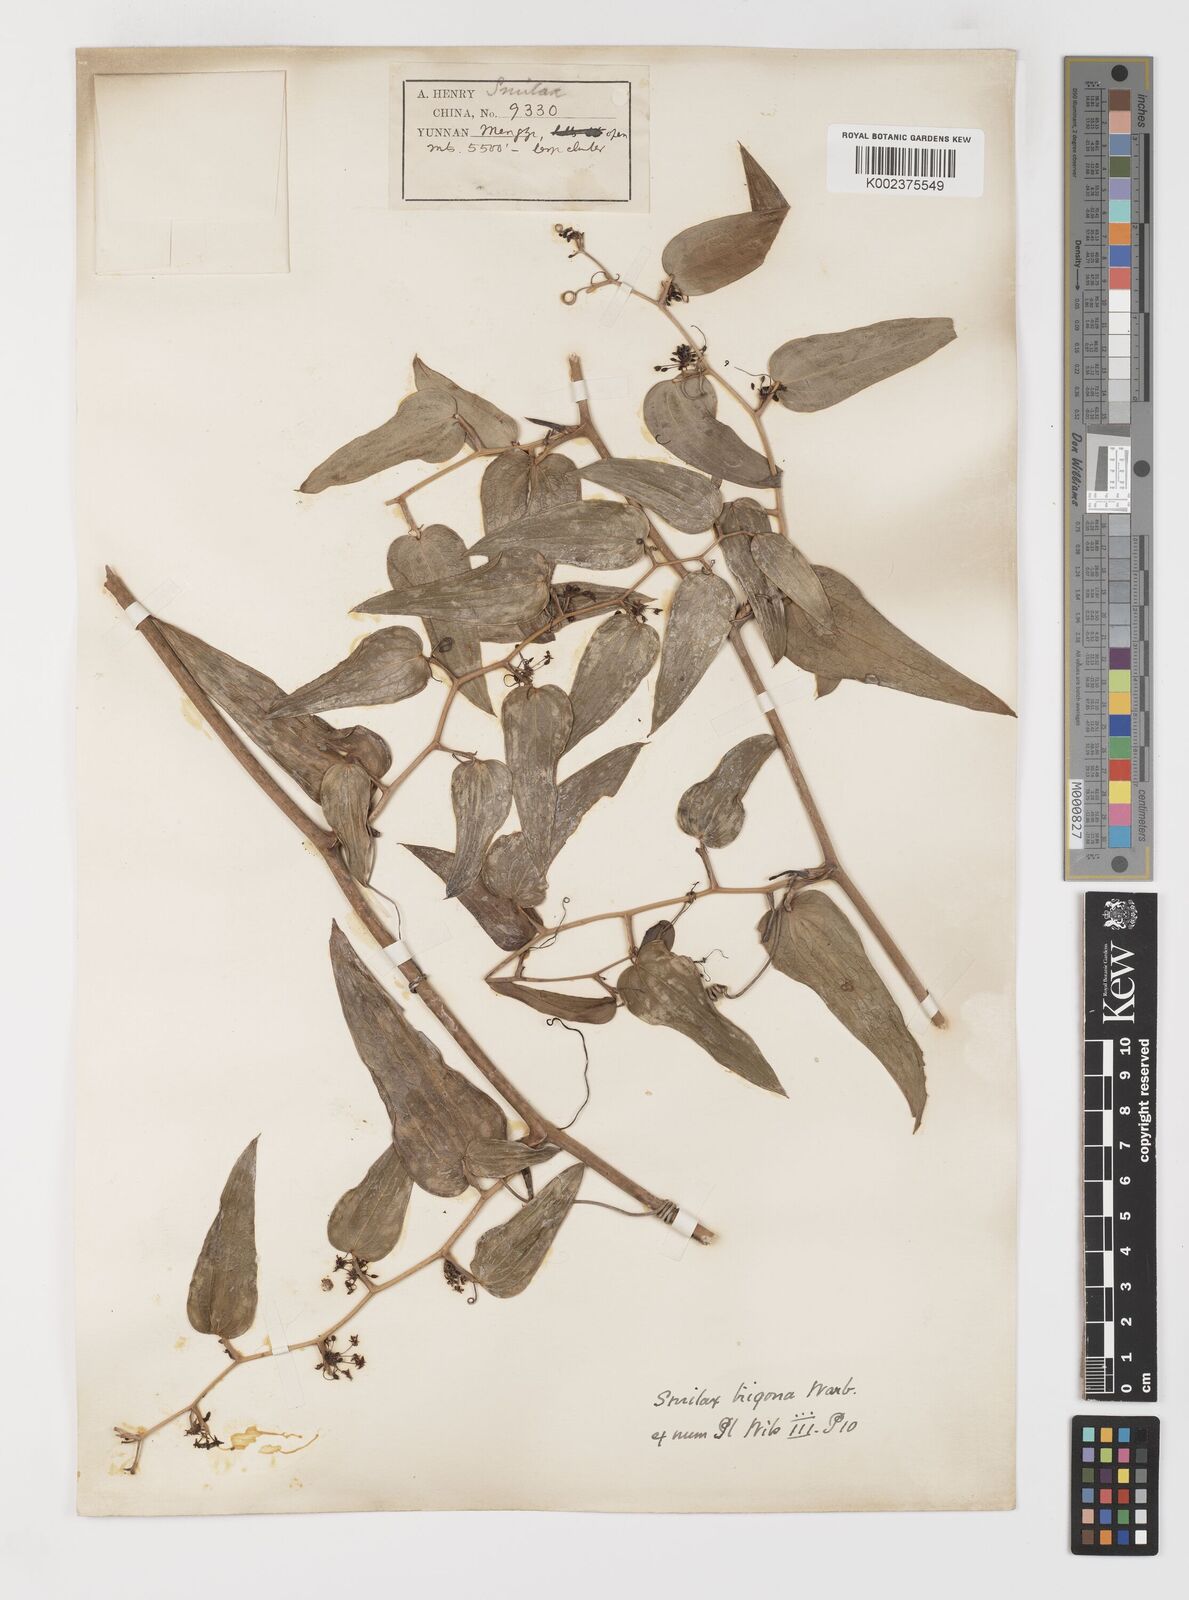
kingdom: Plantae
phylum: Tracheophyta
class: Liliopsida
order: Liliales
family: Smilacaceae
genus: Smilax
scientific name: Smilax lanceifolia
